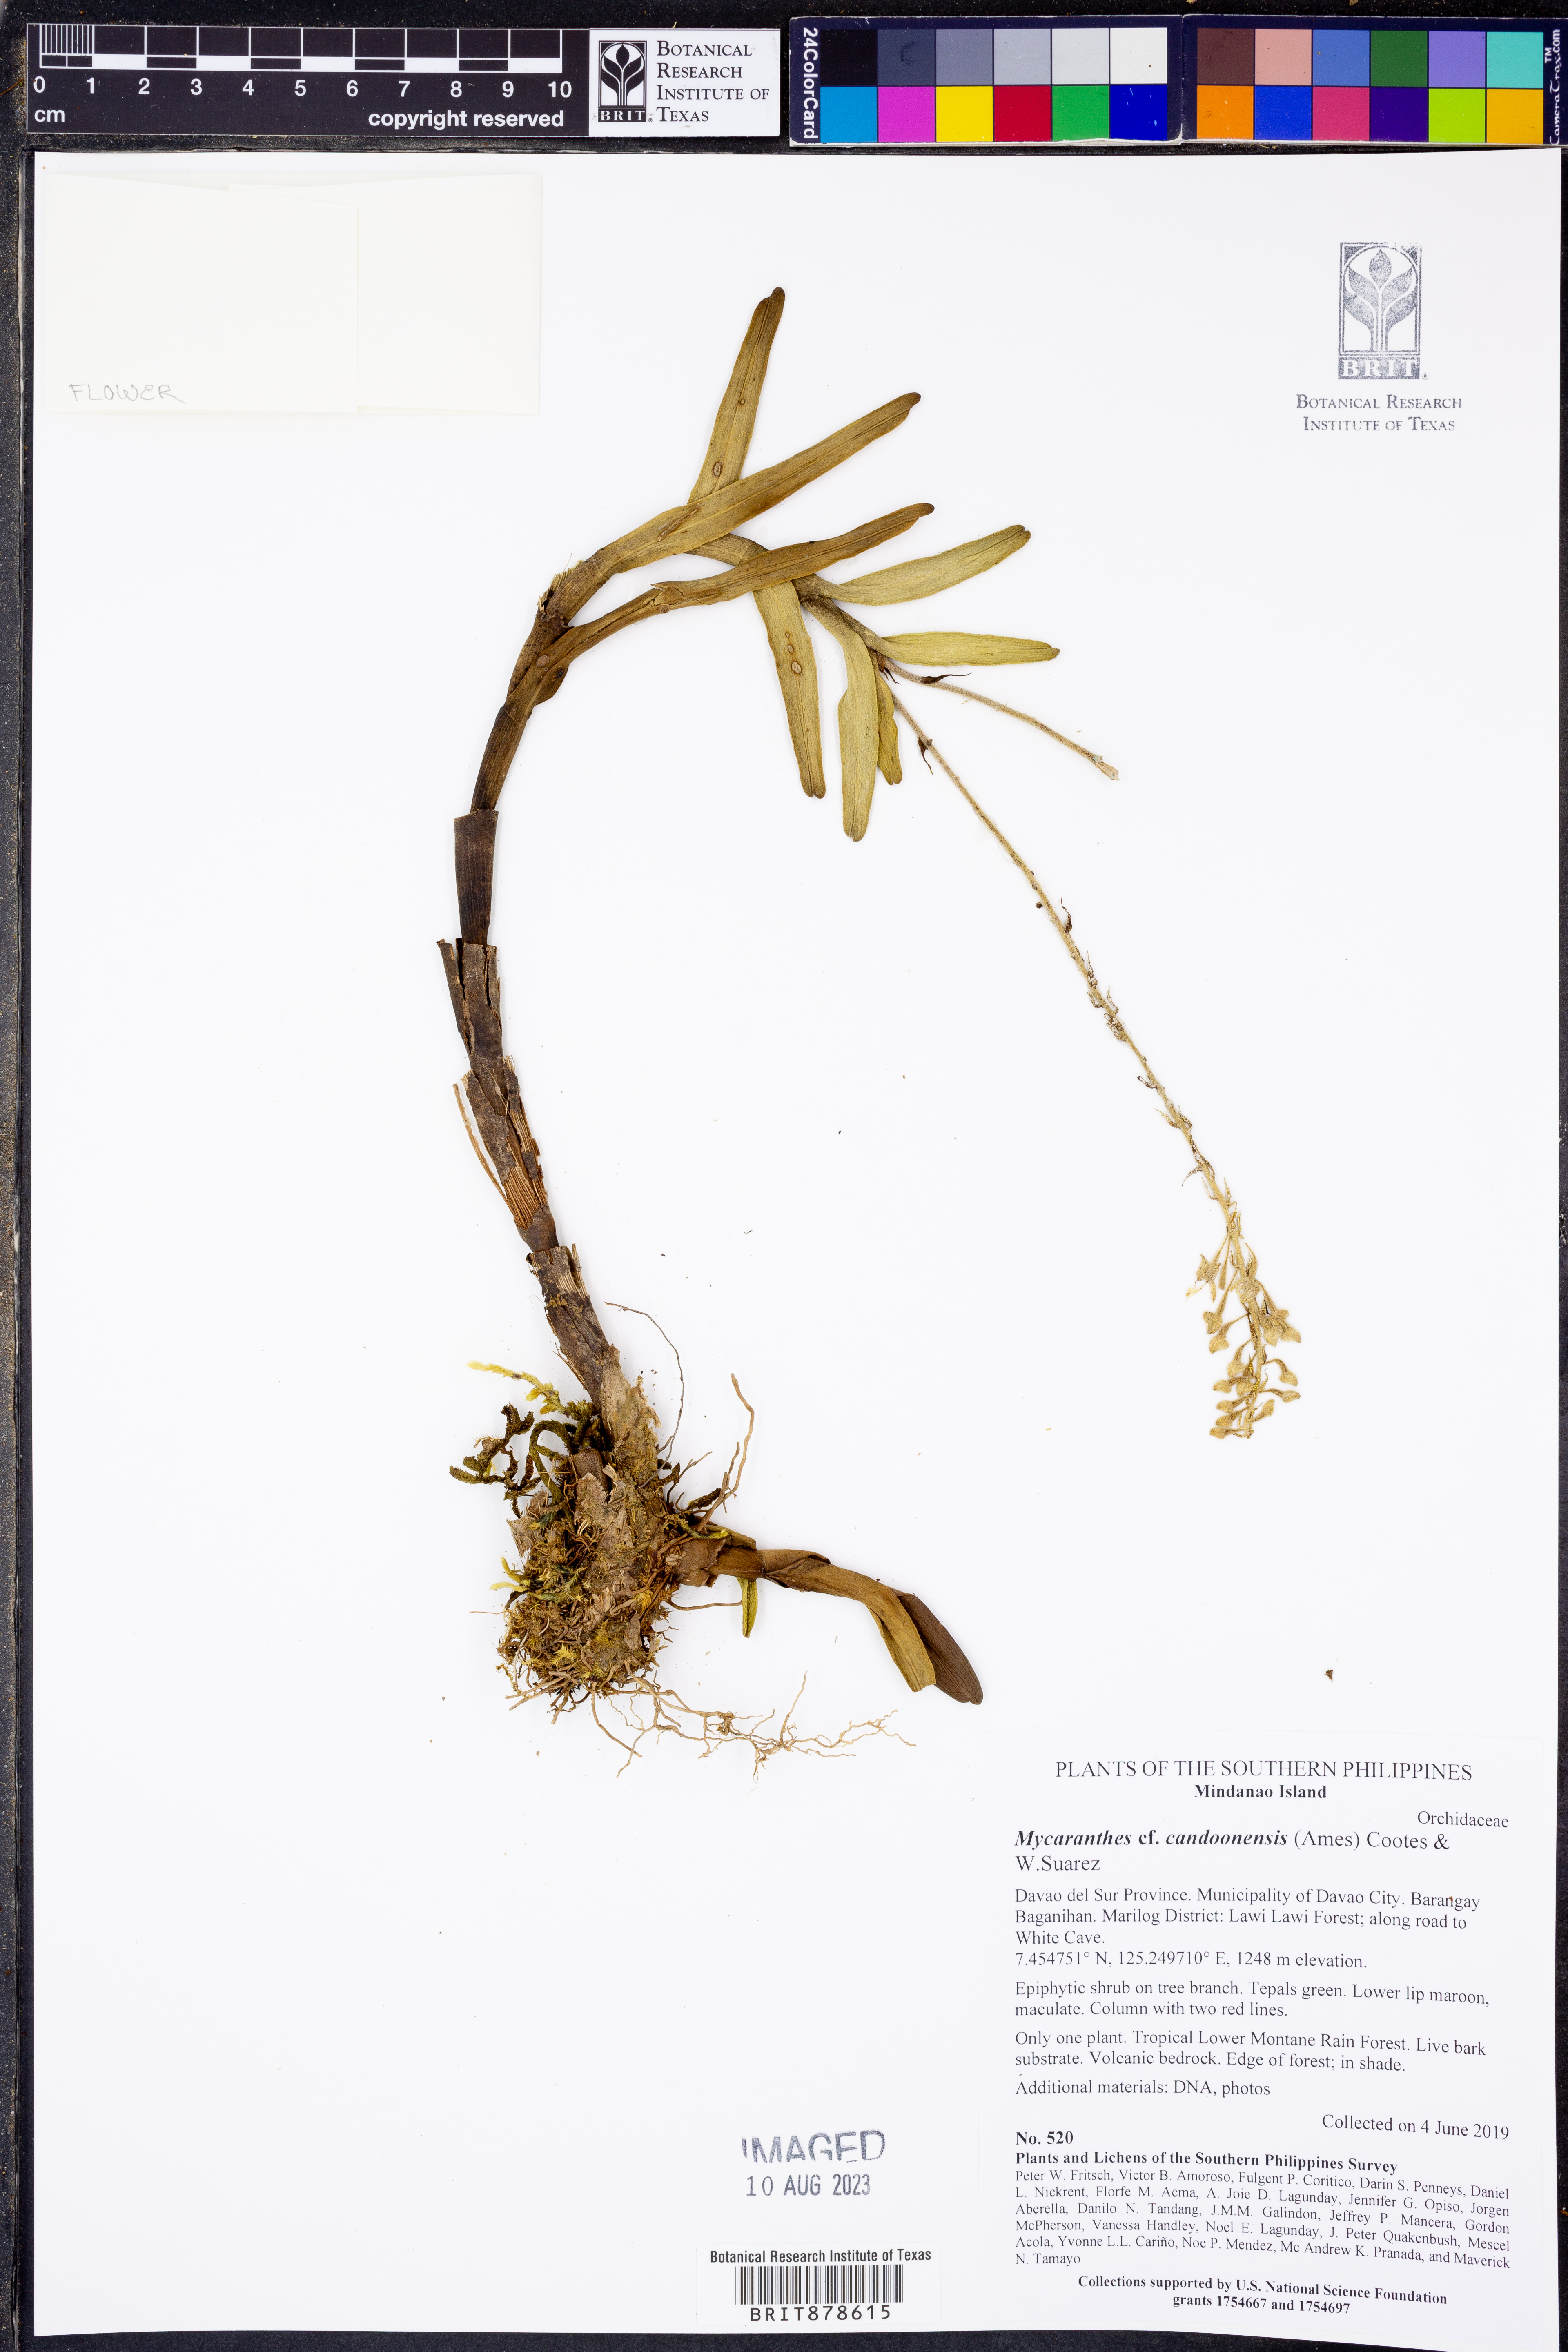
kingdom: Plantae
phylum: Tracheophyta
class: Liliopsida
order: Asparagales
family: Orchidaceae
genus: Mycaranthes
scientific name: Mycaranthes candoonensis
